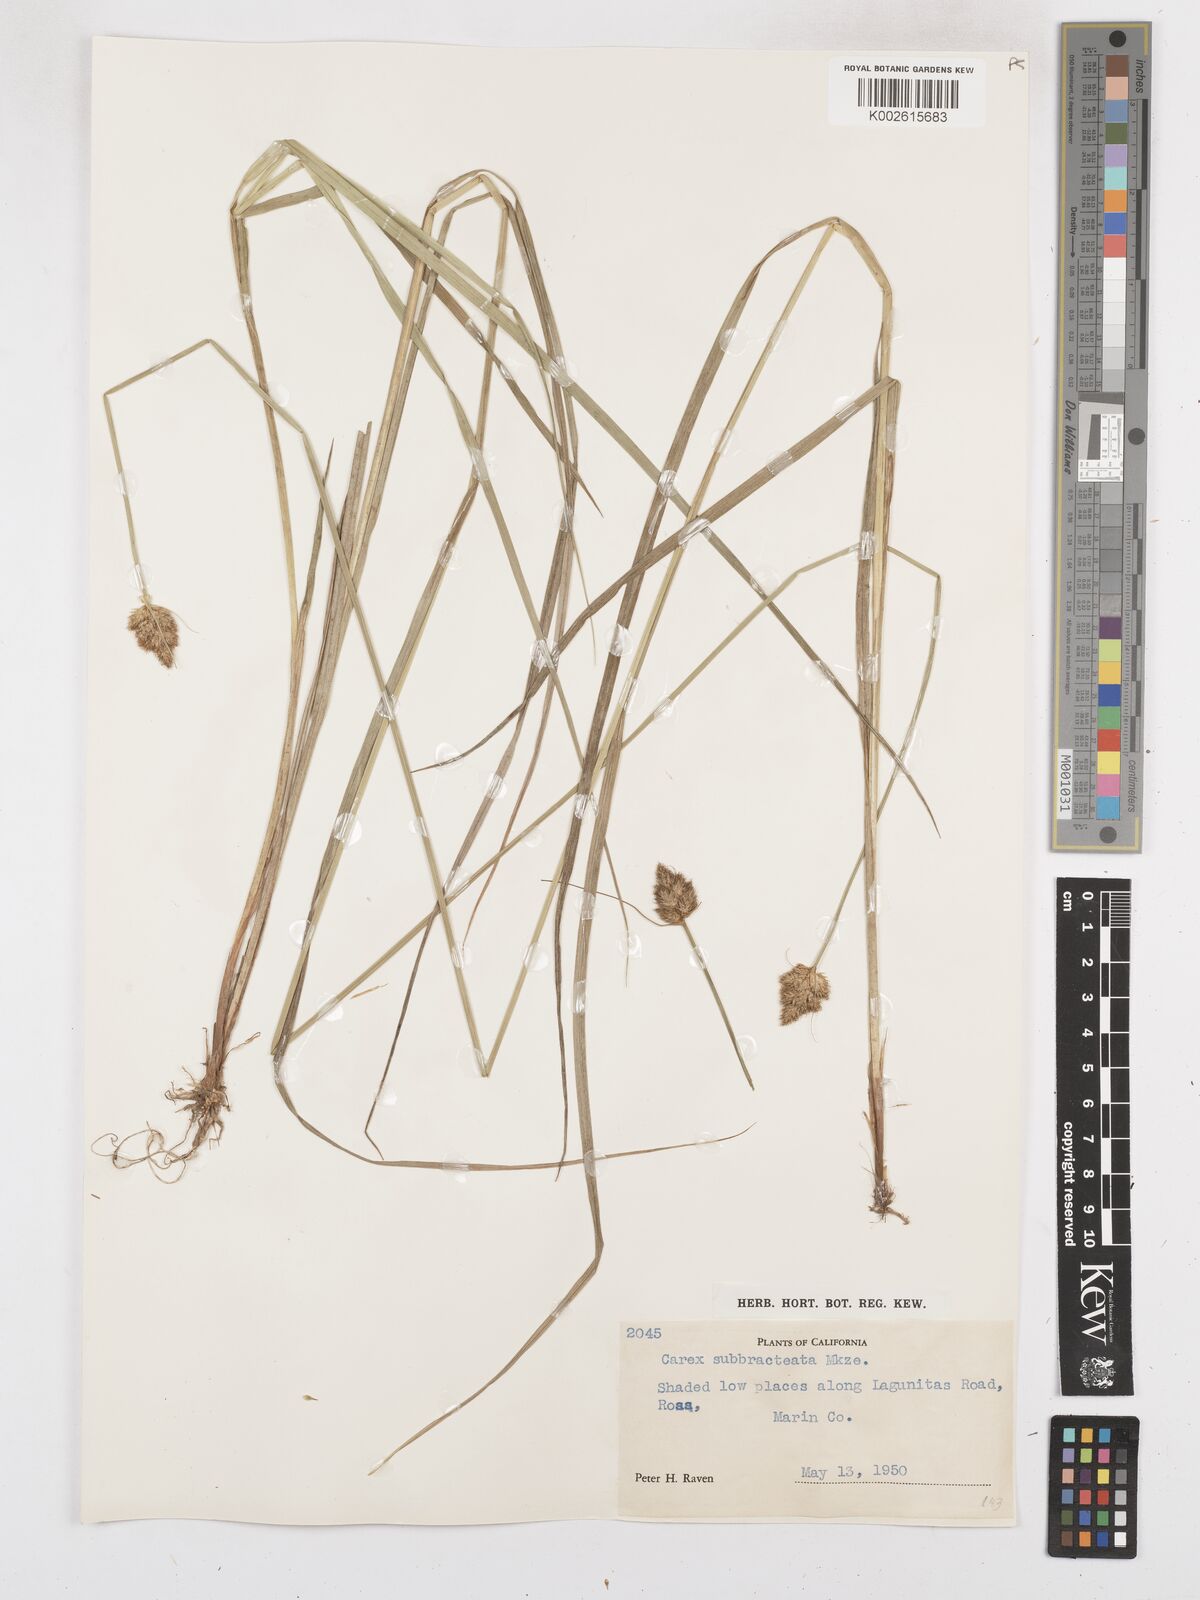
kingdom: Plantae
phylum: Tracheophyta
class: Liliopsida
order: Poales
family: Cyperaceae
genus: Carex
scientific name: Carex subbracteata
